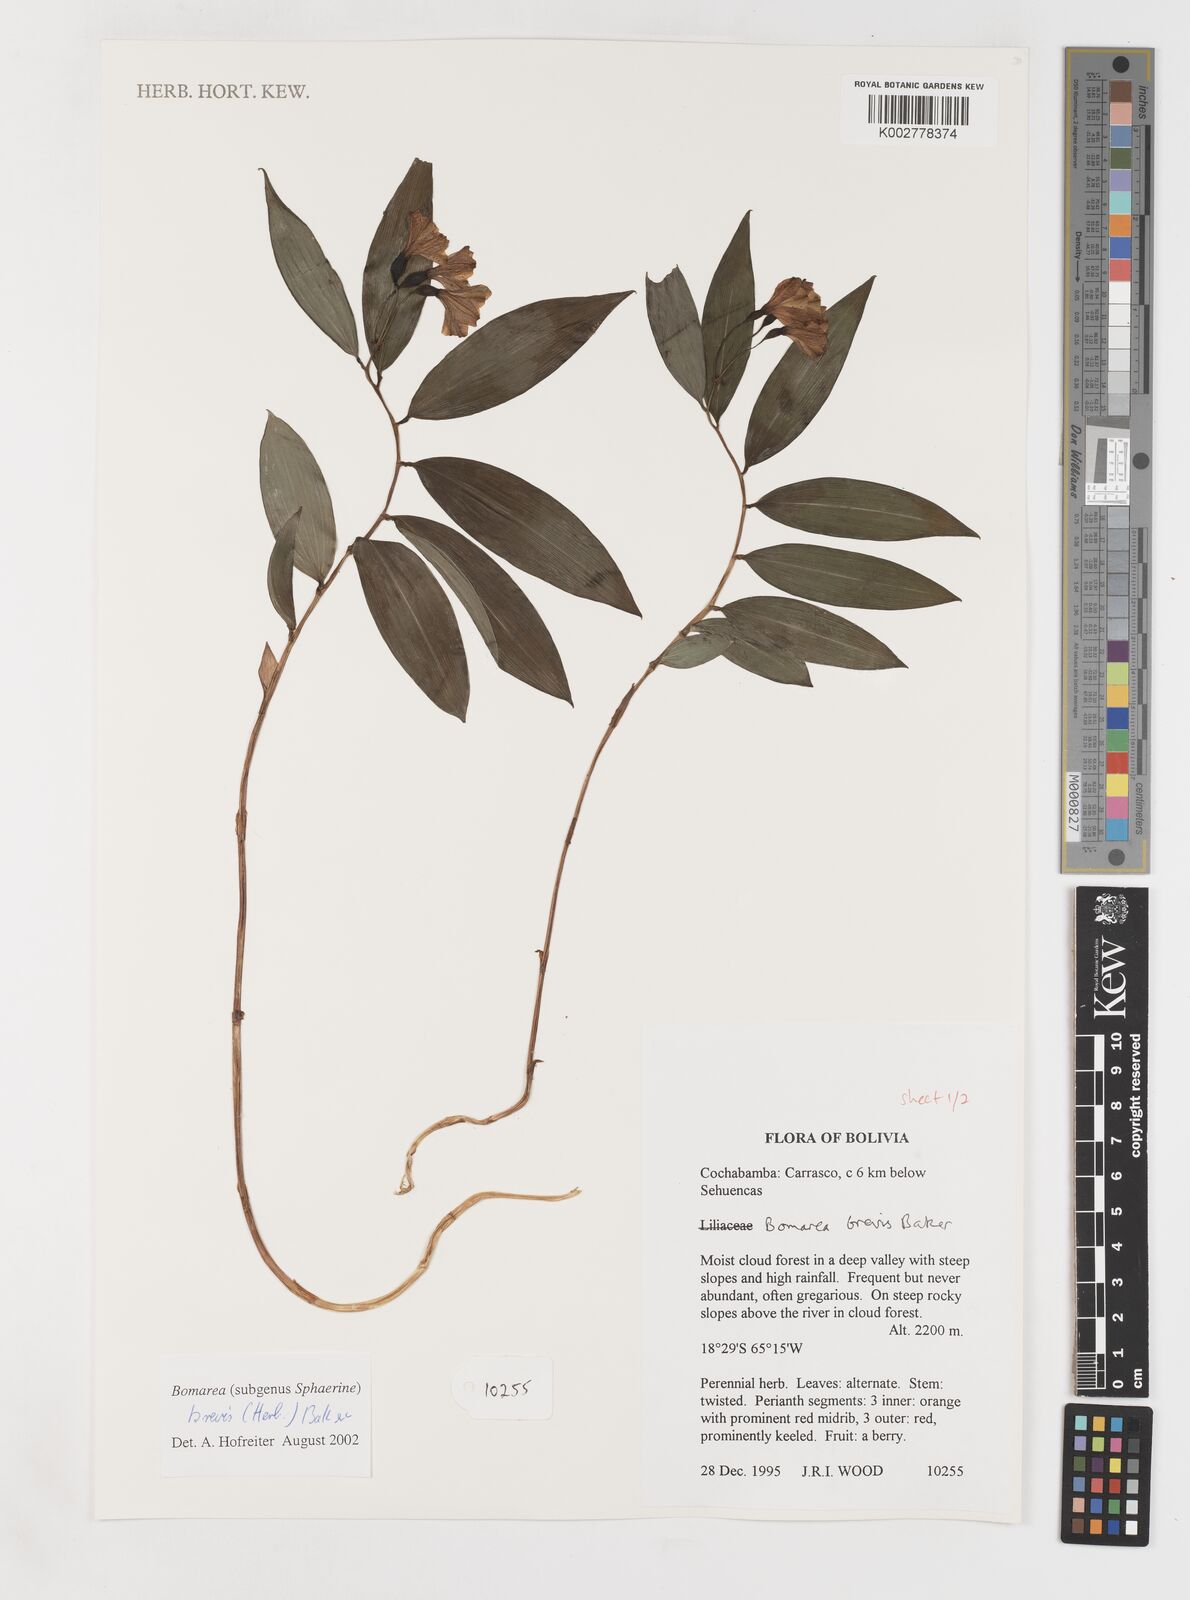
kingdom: Plantae
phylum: Tracheophyta
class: Liliopsida
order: Liliales
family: Alstroemeriaceae
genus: Bomarea
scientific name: Bomarea brevis
